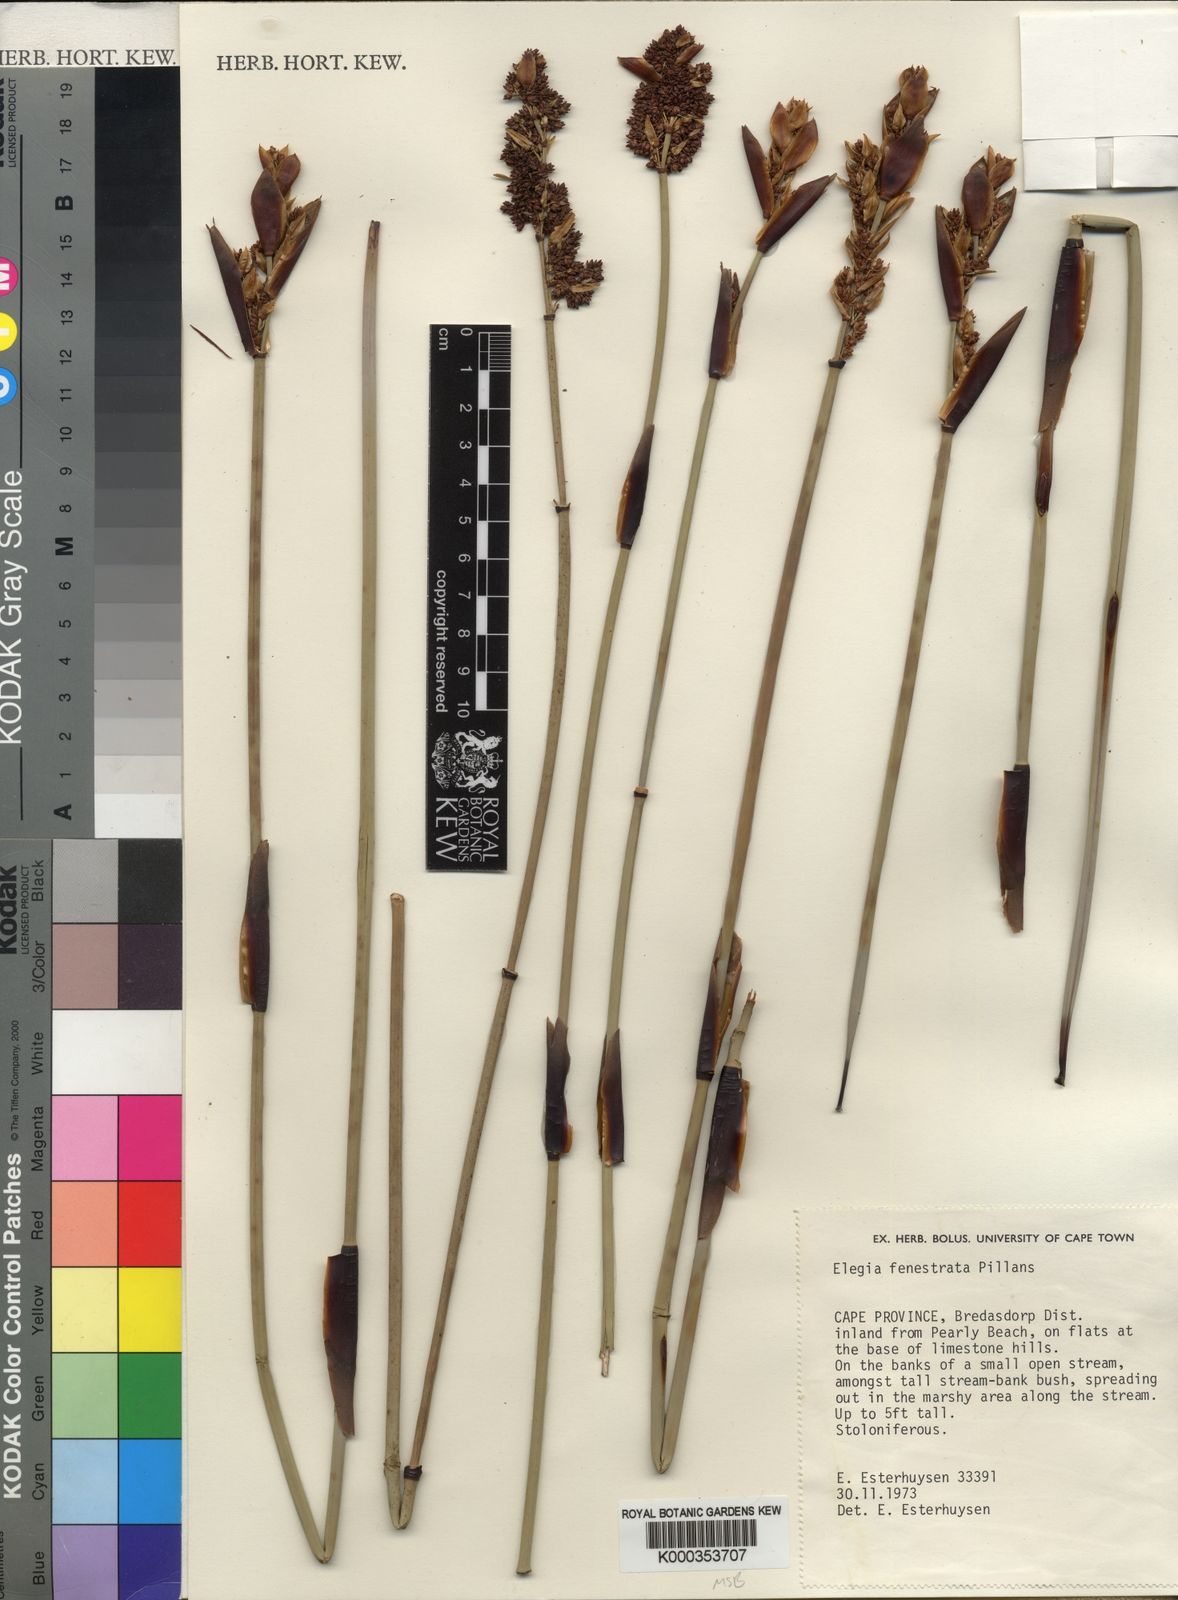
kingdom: Plantae
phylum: Tracheophyta
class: Liliopsida
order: Poales
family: Restionaceae
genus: Elegia
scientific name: Elegia fenestrata
